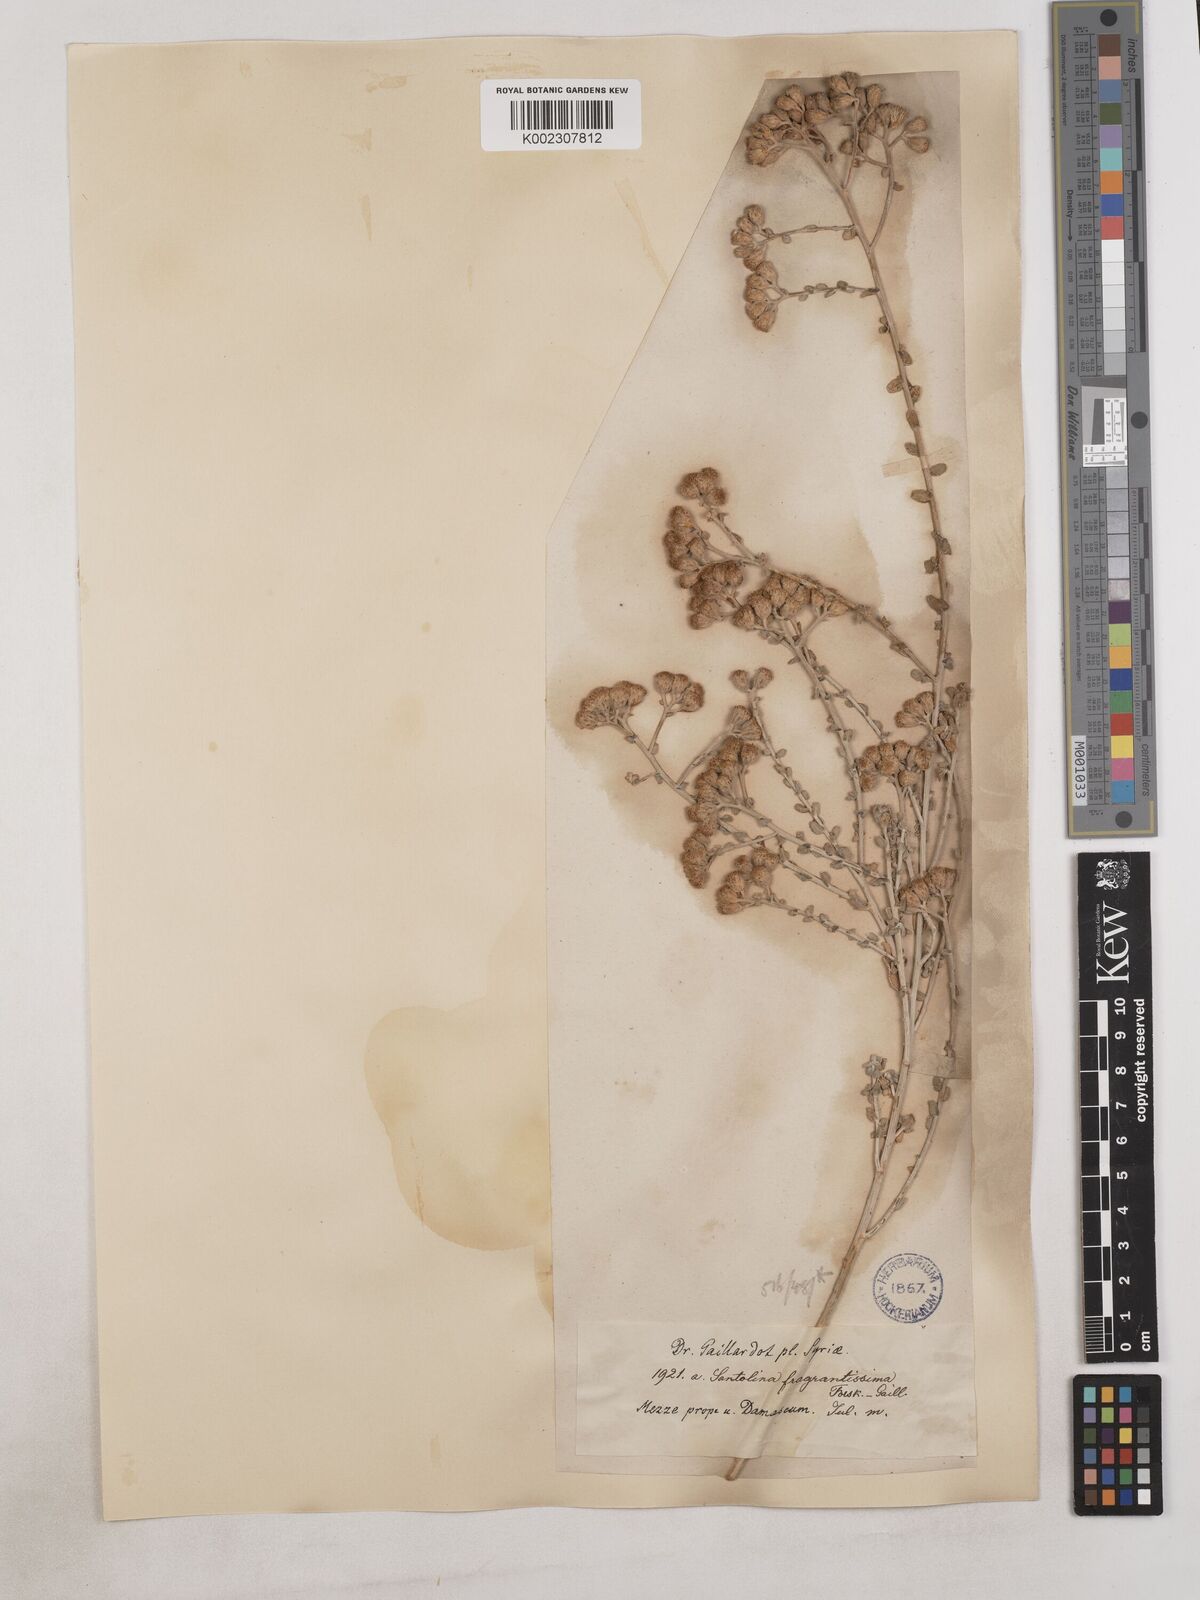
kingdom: Plantae
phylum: Tracheophyta
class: Magnoliopsida
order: Asterales
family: Asteraceae
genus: Achillea
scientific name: Achillea fragrantissima
